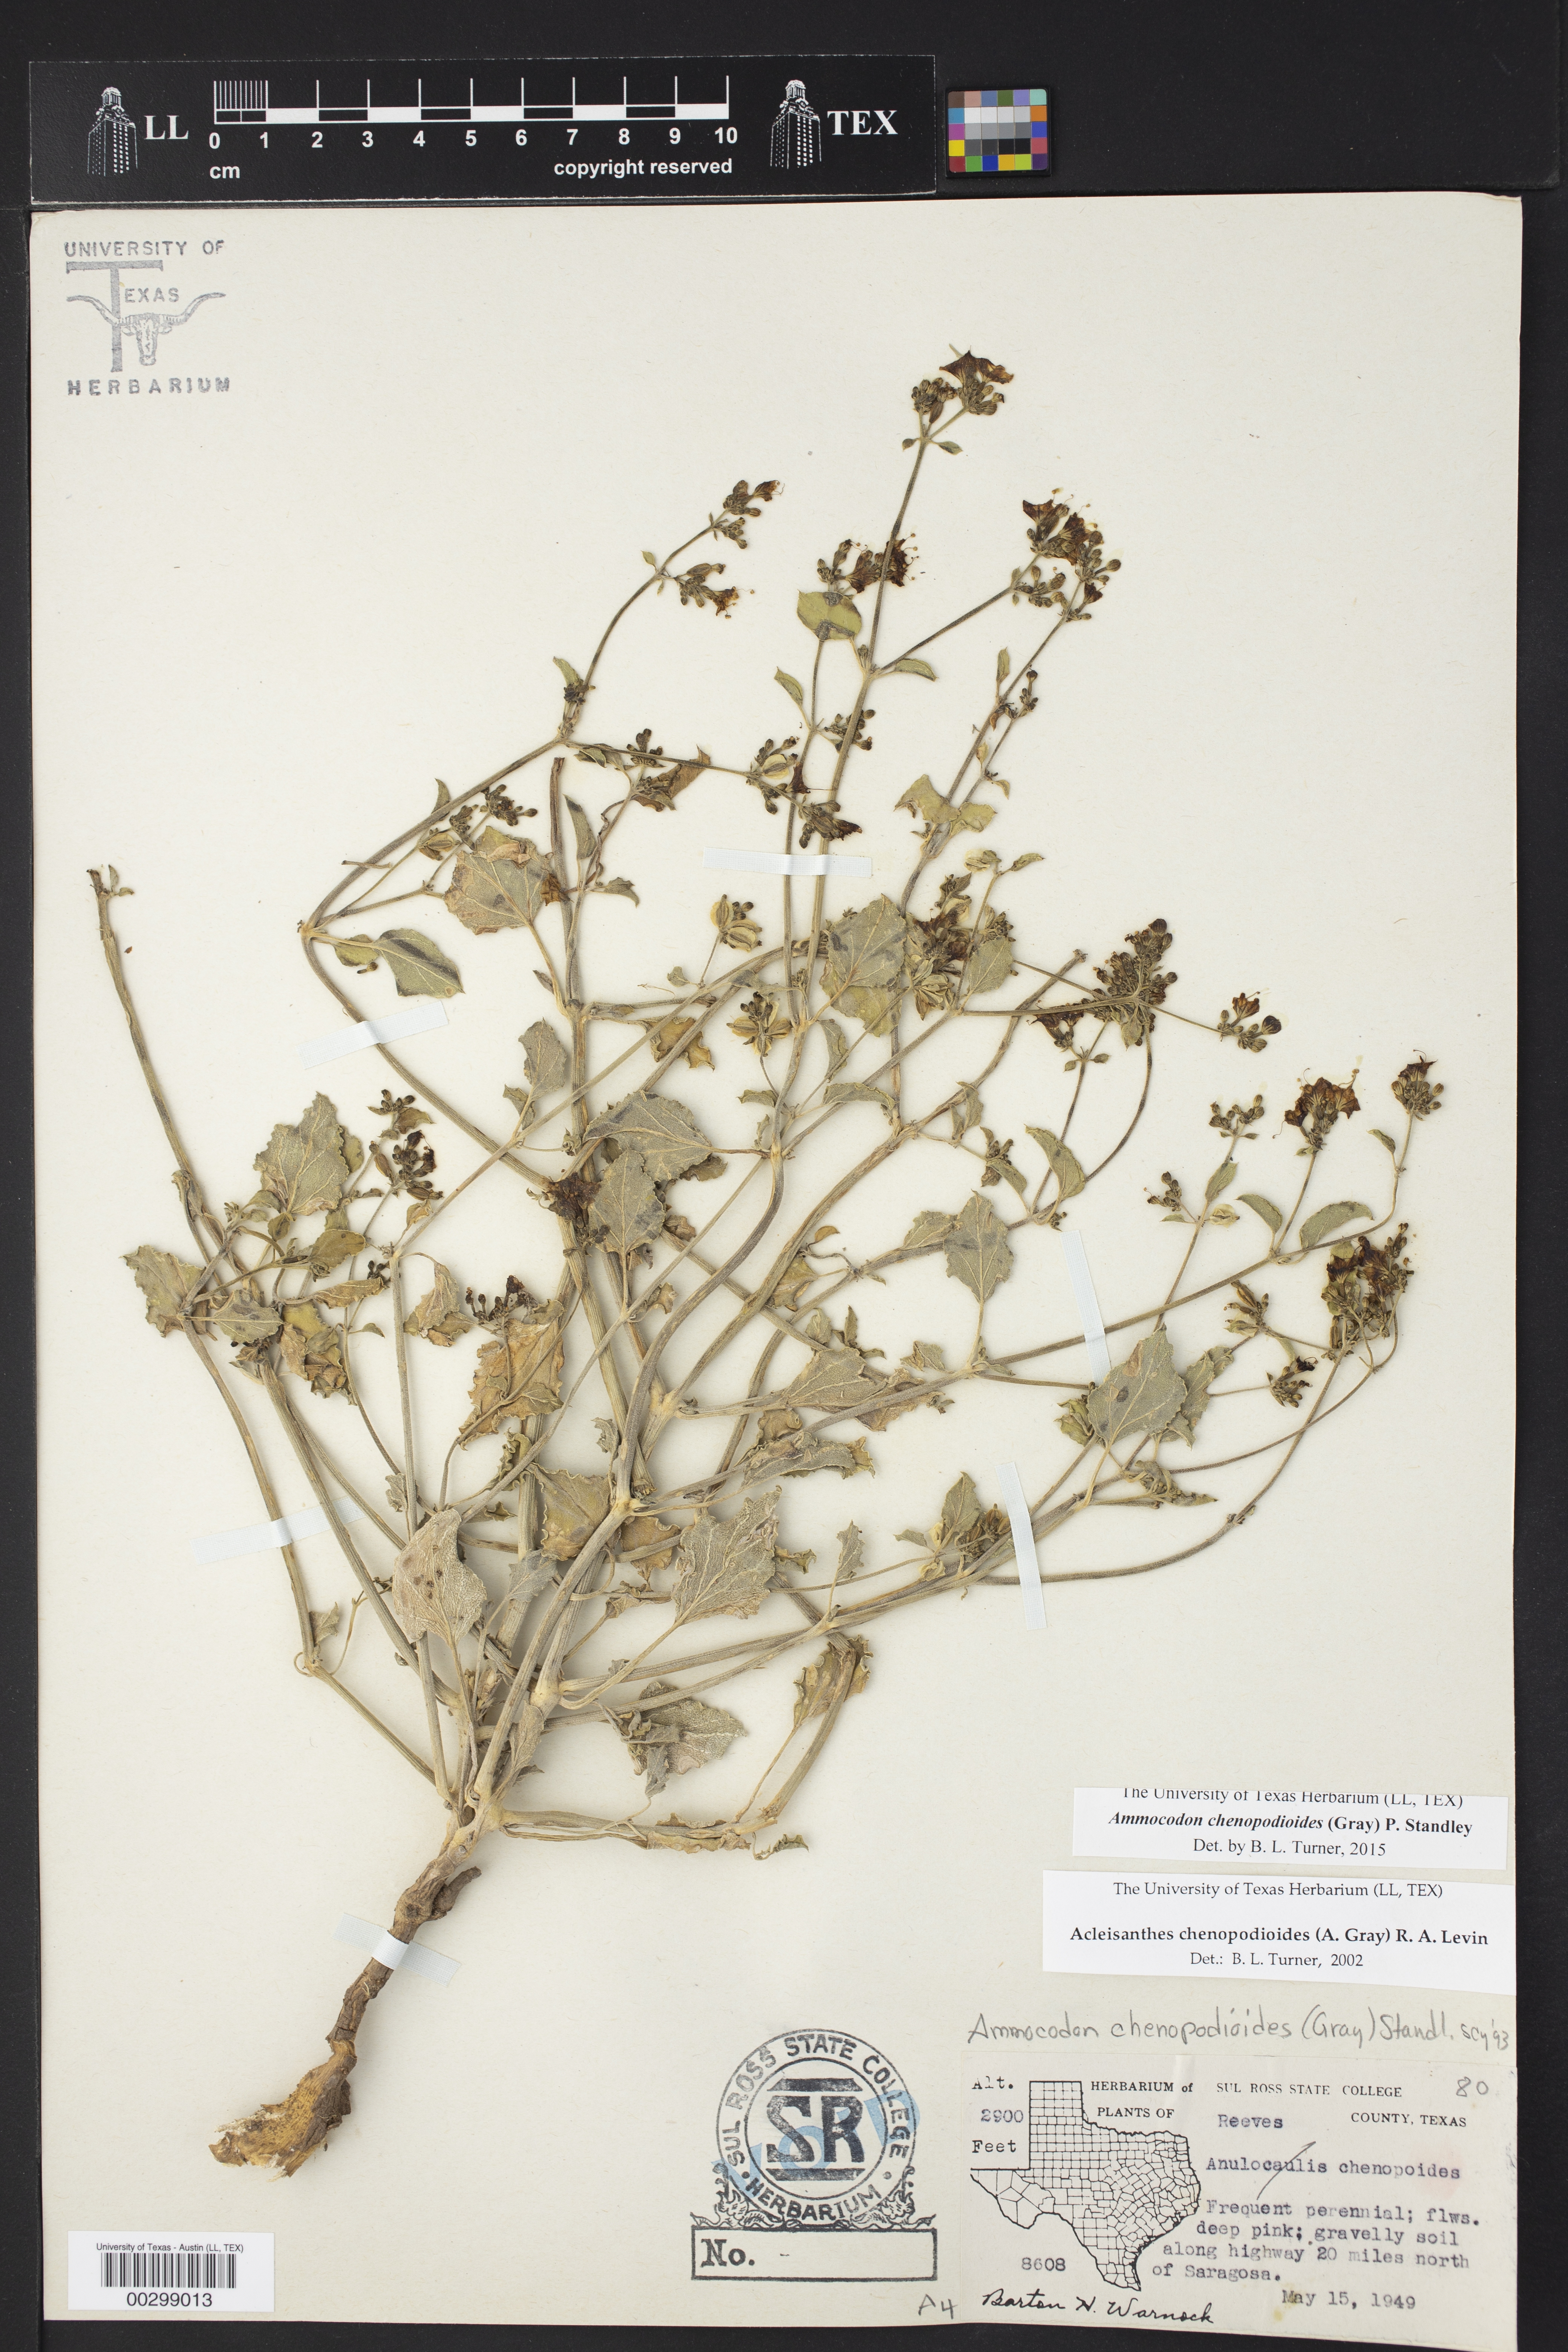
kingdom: Plantae
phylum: Tracheophyta
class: Magnoliopsida
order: Caryophyllales
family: Nyctaginaceae
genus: Acleisanthes
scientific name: Acleisanthes chenopodioides
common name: Goosefoot moonpod
